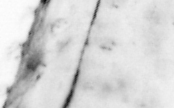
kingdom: Animalia
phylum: Chaetognatha
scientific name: Chaetognatha
